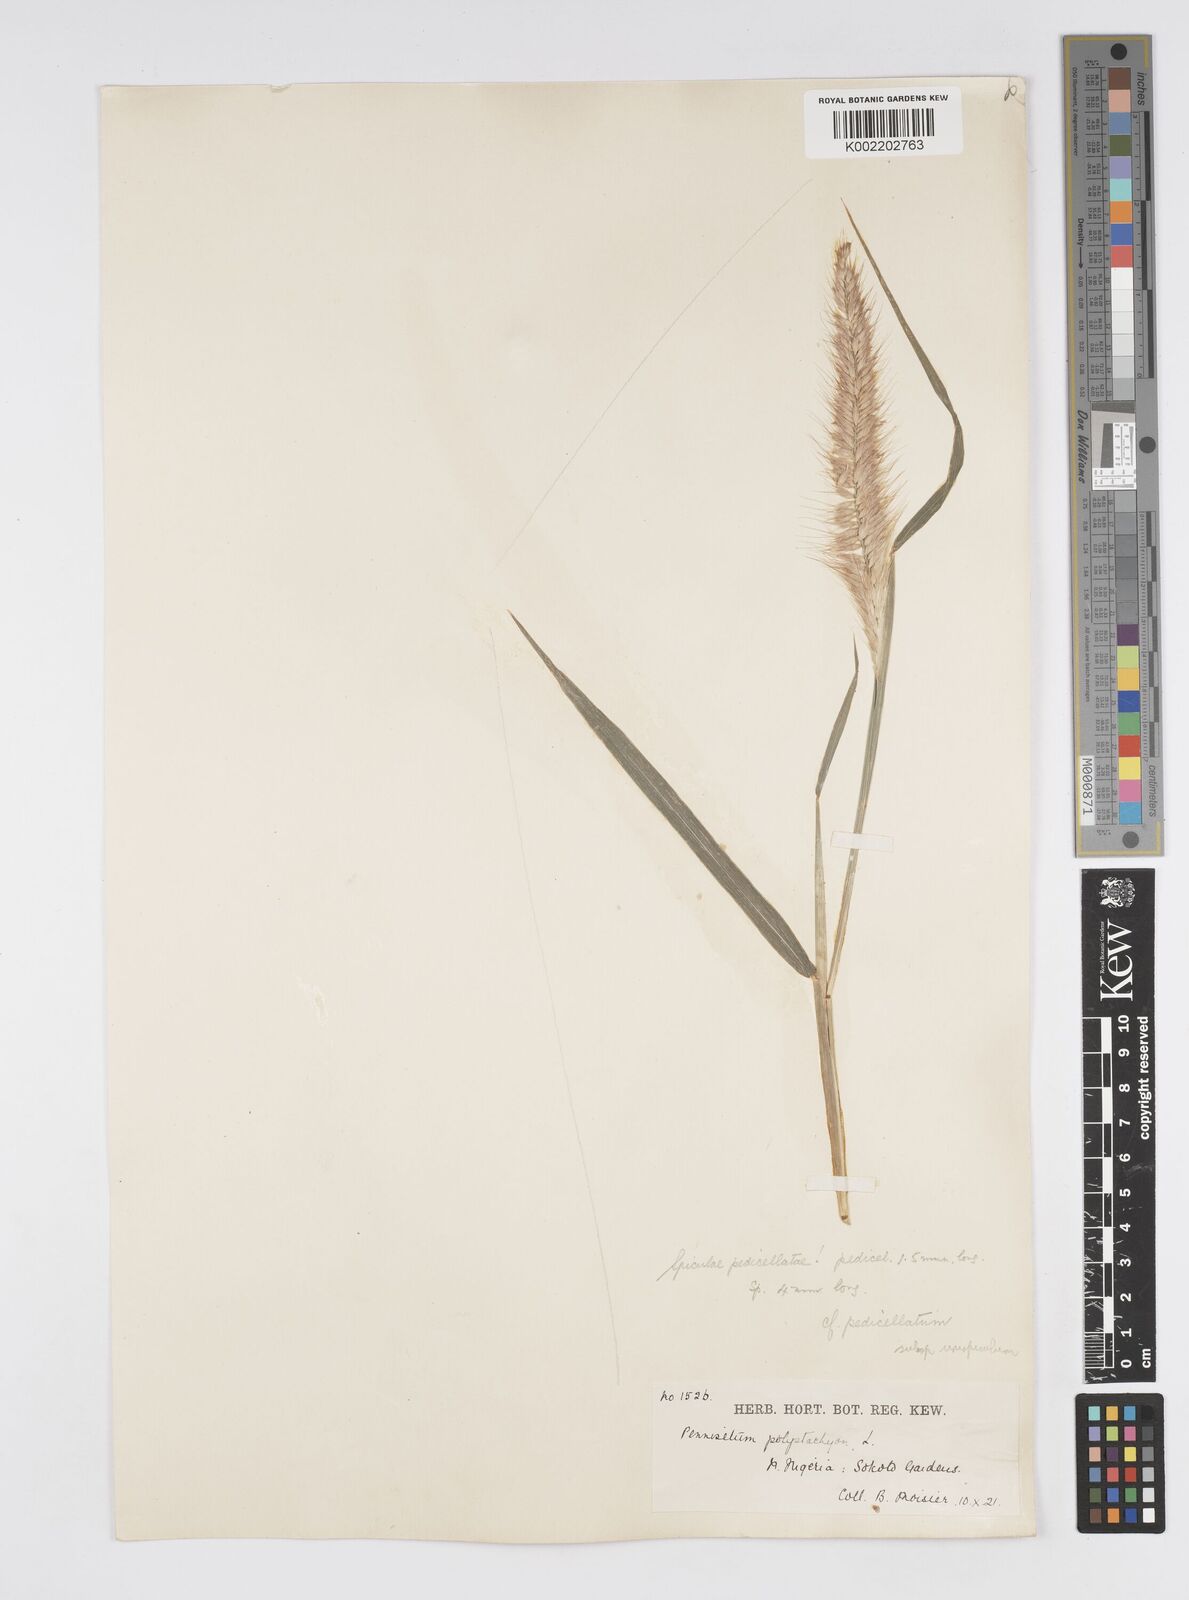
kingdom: Plantae
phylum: Tracheophyta
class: Liliopsida
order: Poales
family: Poaceae
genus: Cenchrus
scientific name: Cenchrus pedicellatus
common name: Hairy fountain grass
